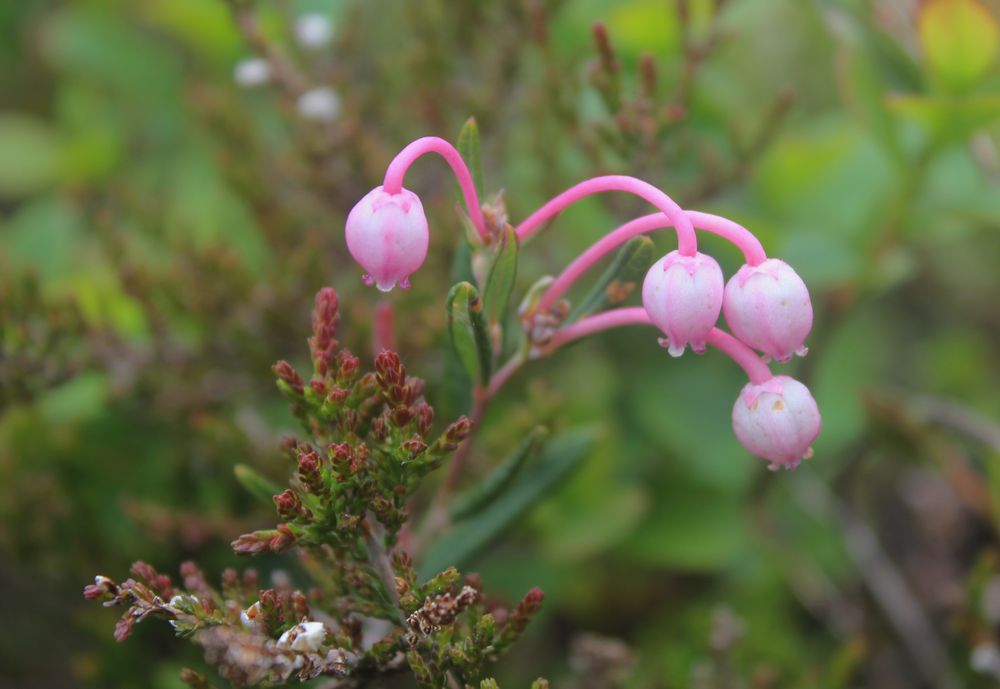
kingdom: Plantae
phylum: Tracheophyta
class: Magnoliopsida
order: Ericales
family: Ericaceae
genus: Andromeda
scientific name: Andromeda polifolia
